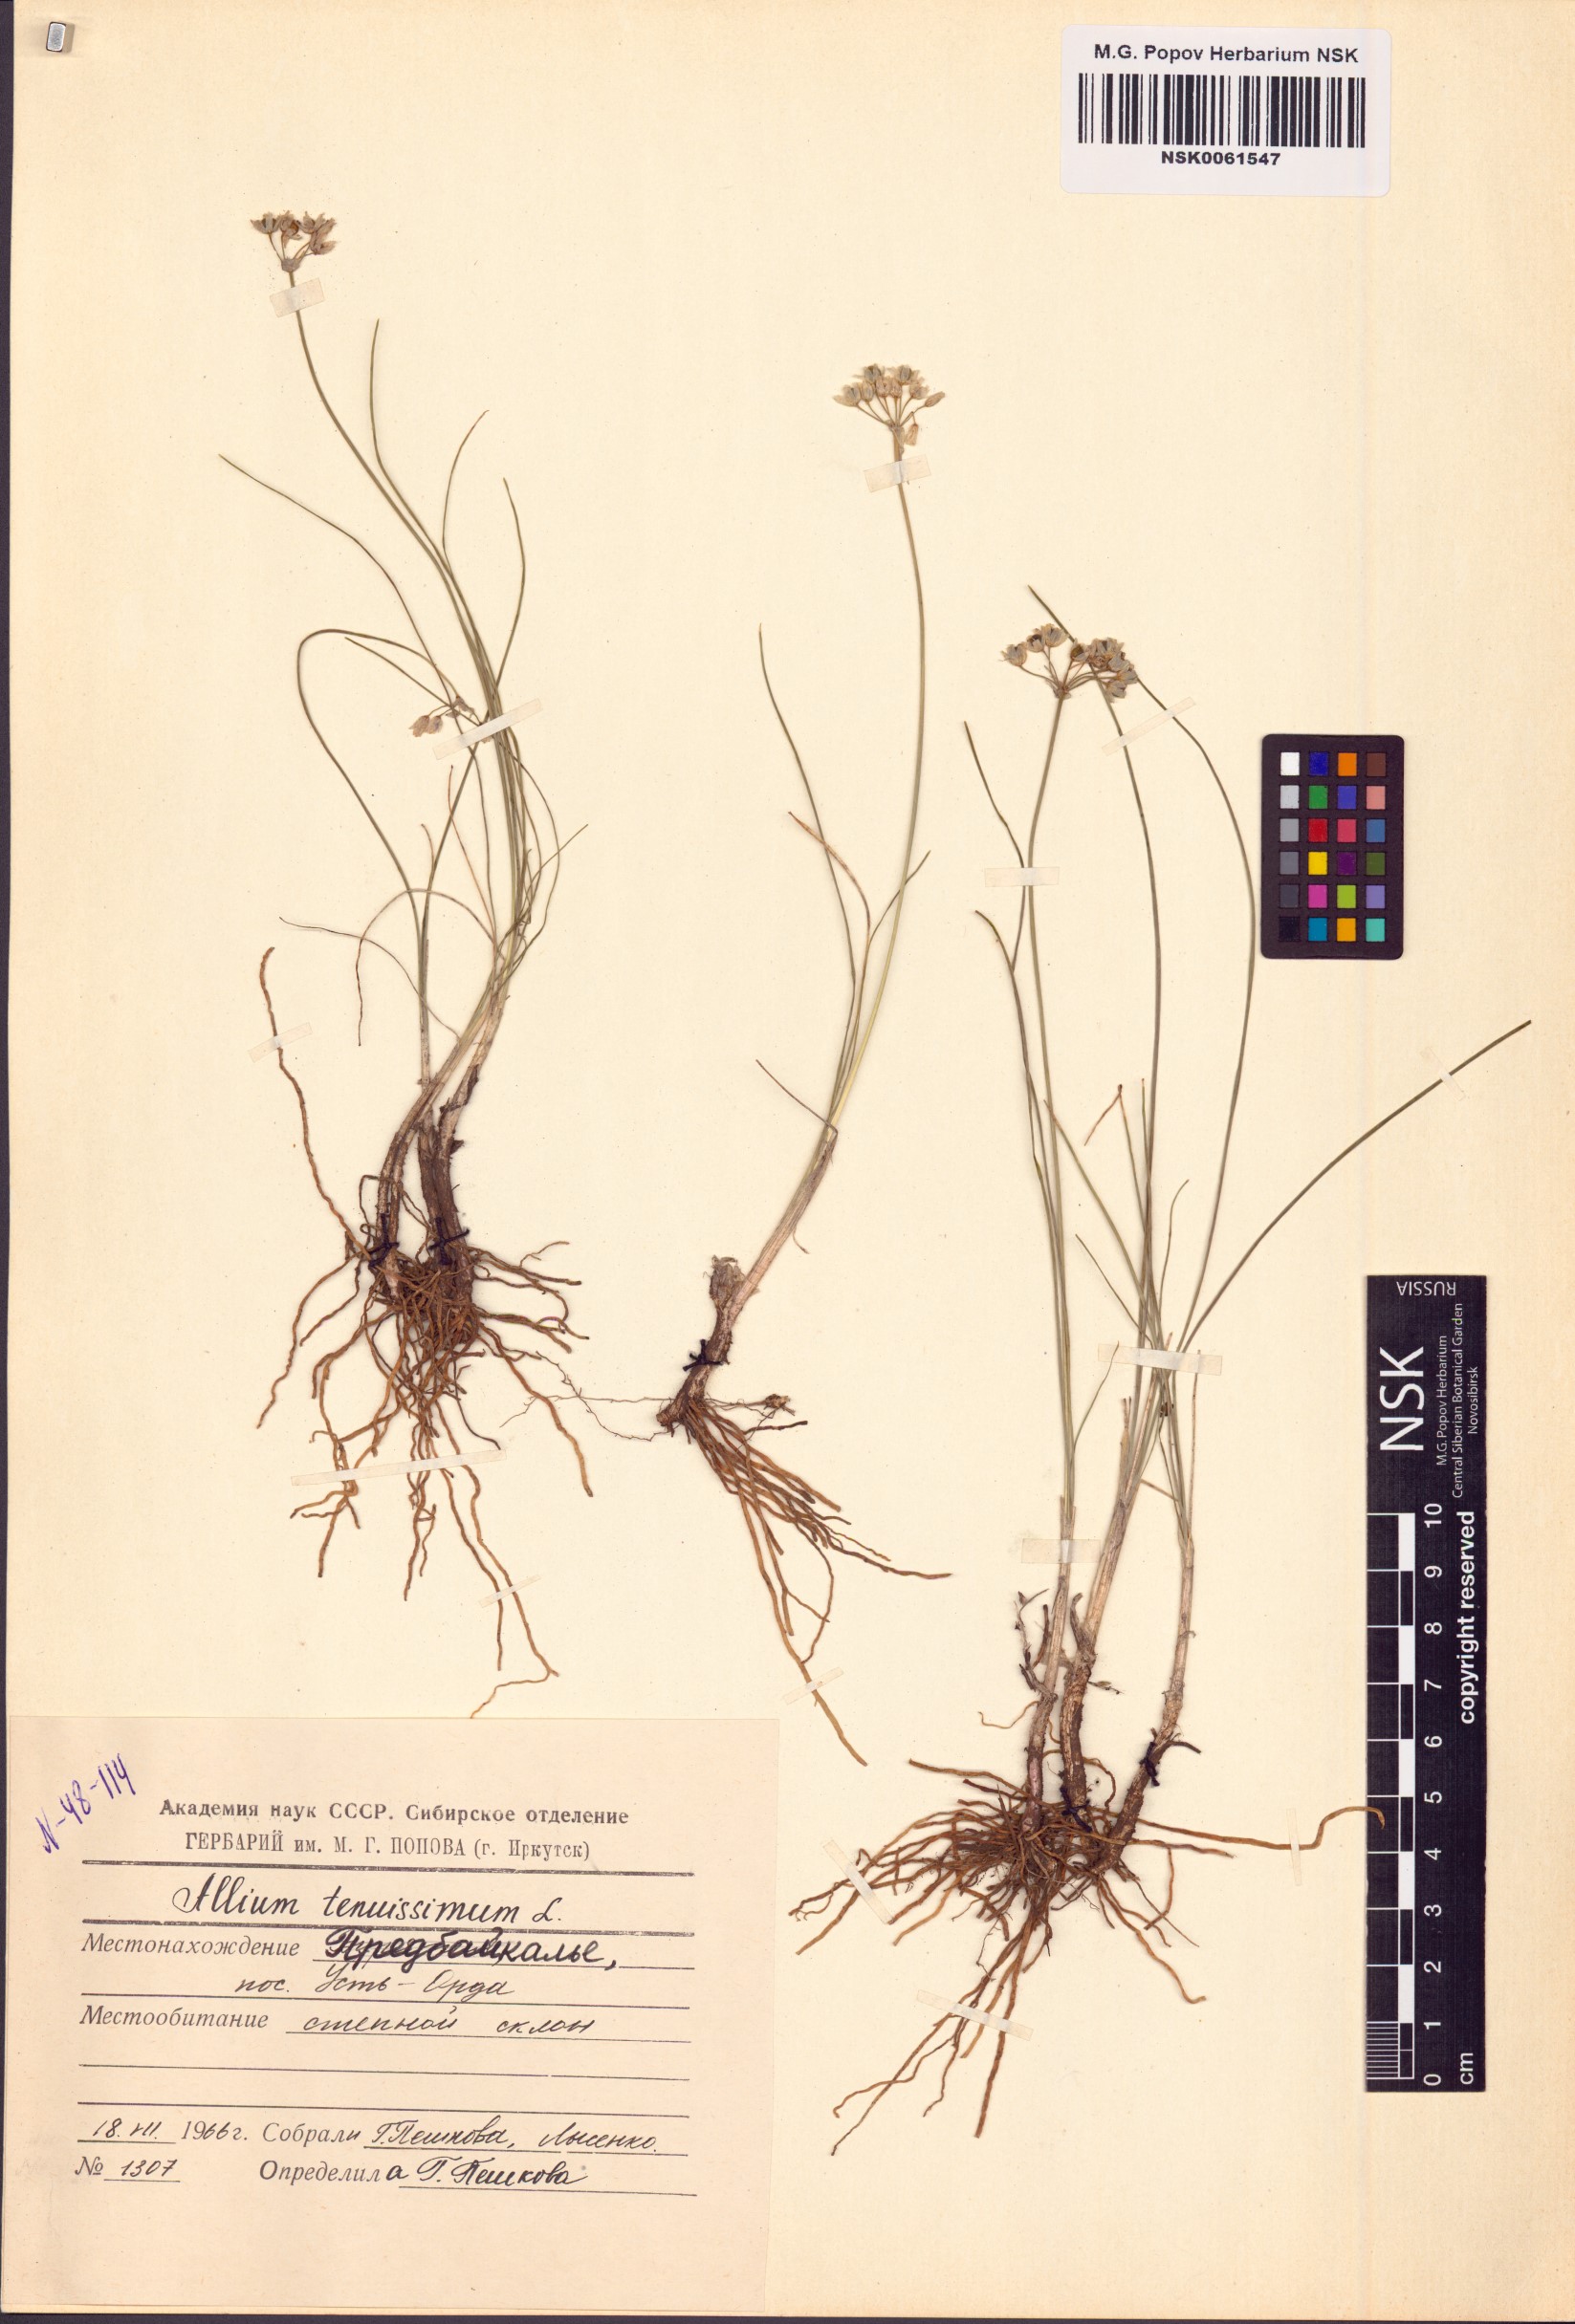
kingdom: Plantae
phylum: Tracheophyta
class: Liliopsida
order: Asparagales
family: Amaryllidaceae
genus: Allium
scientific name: Allium tenuissimum
